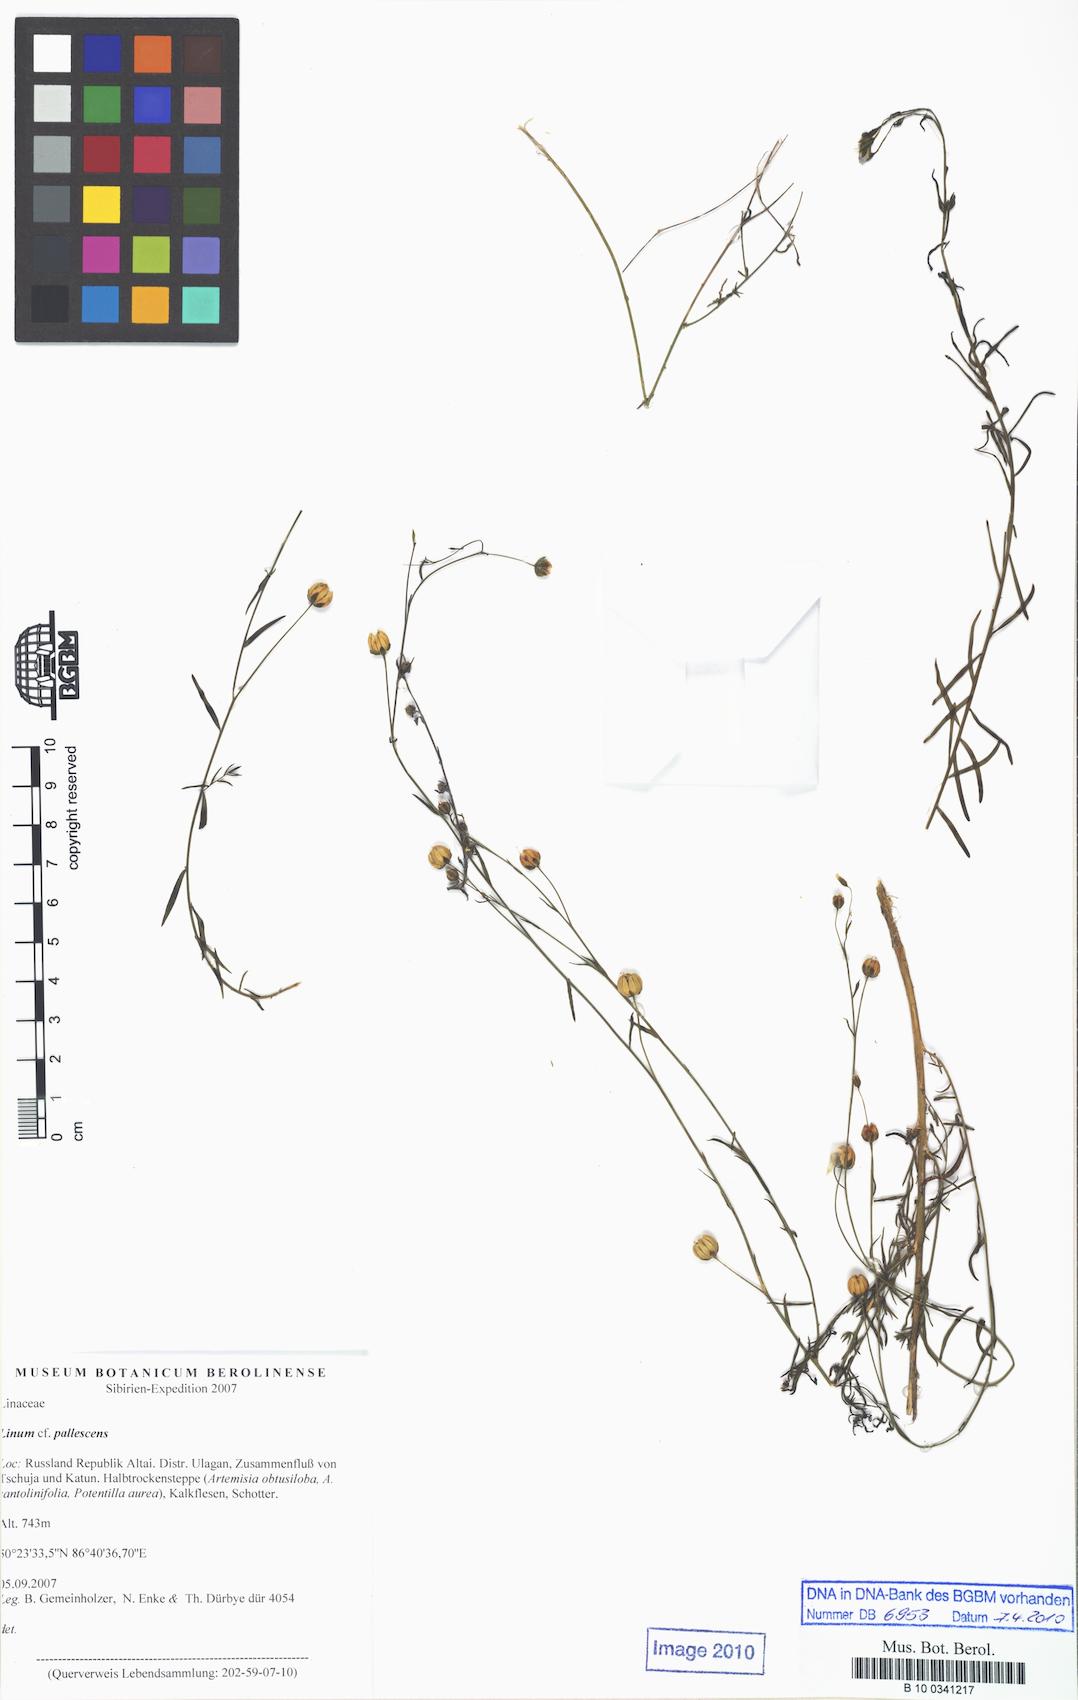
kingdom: Plantae
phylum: Tracheophyta
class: Magnoliopsida
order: Malpighiales
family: Linaceae
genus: Linum
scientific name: Linum pallescens
